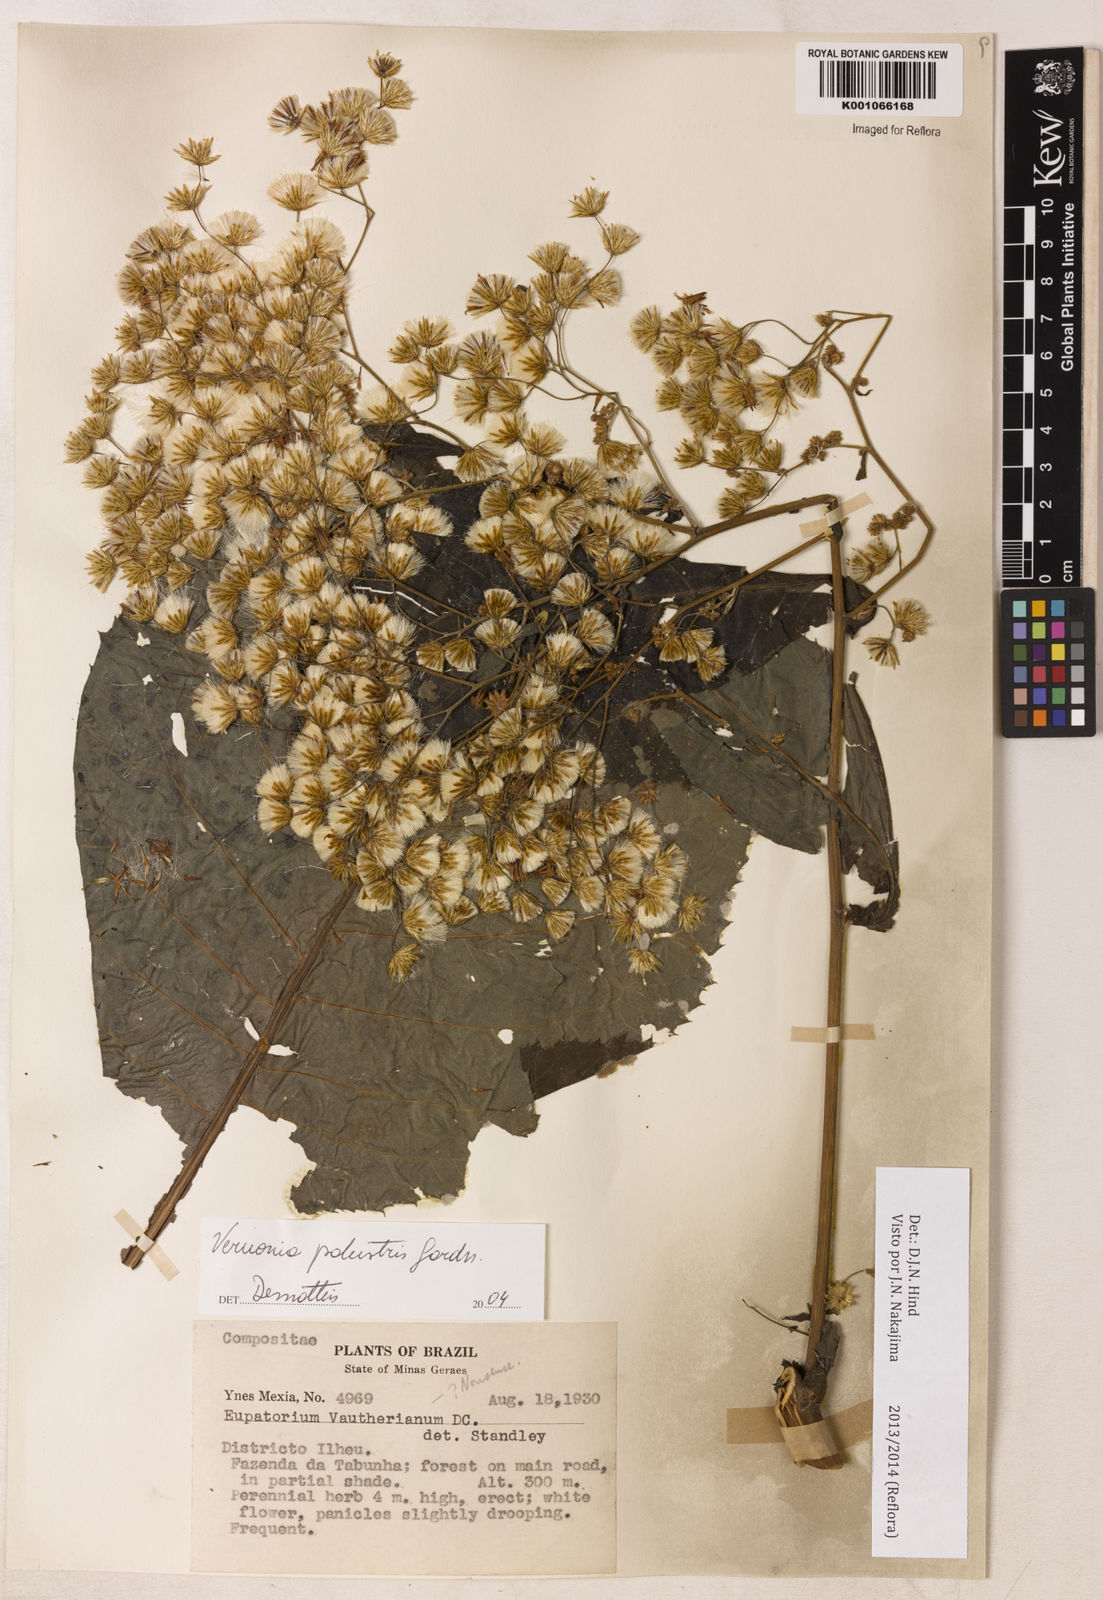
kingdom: Plantae
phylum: Tracheophyta
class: Magnoliopsida
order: Asterales
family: Asteraceae
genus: Dasyanthina
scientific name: Dasyanthina palustris
